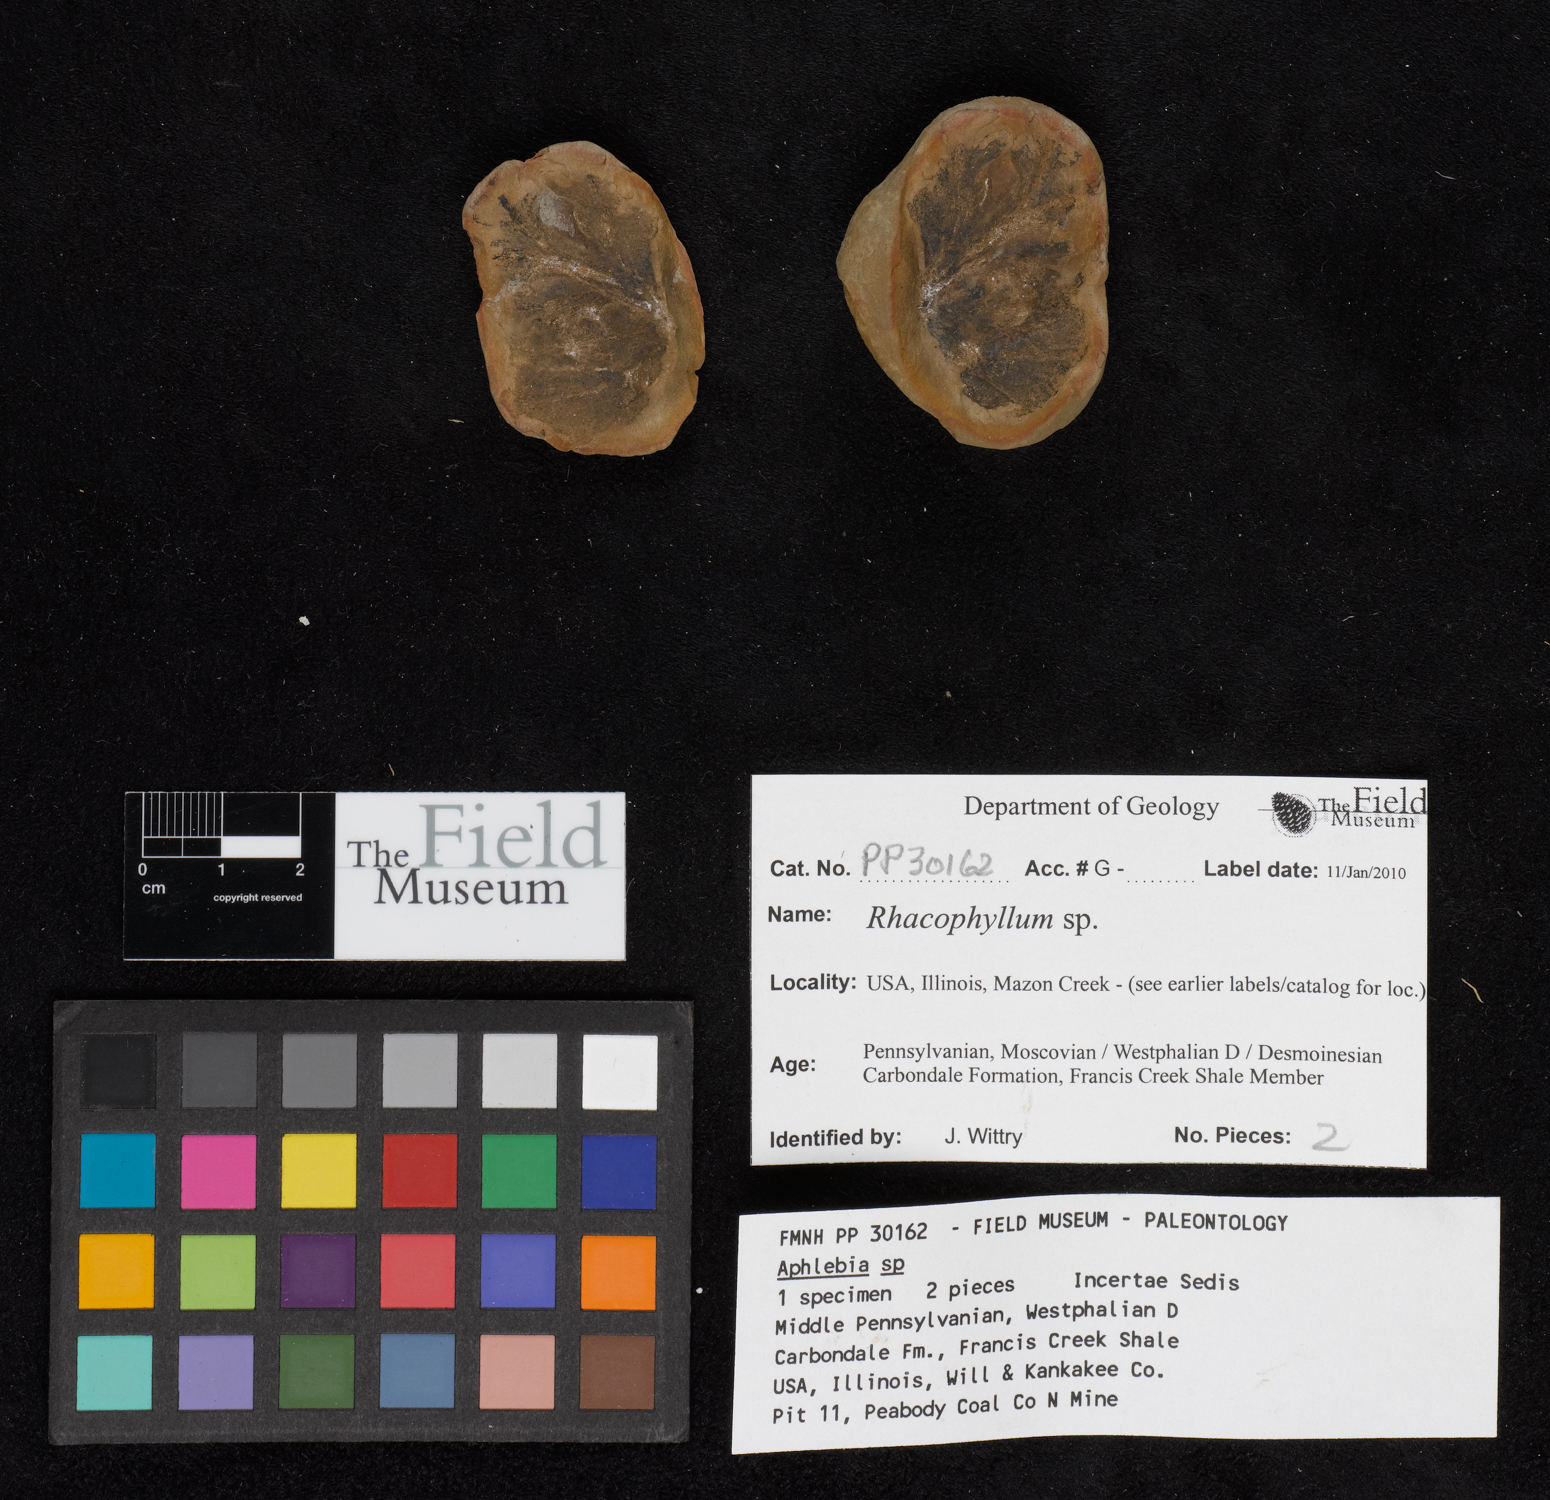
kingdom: Plantae
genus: Rhacophyllum
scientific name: Rhacophyllum
